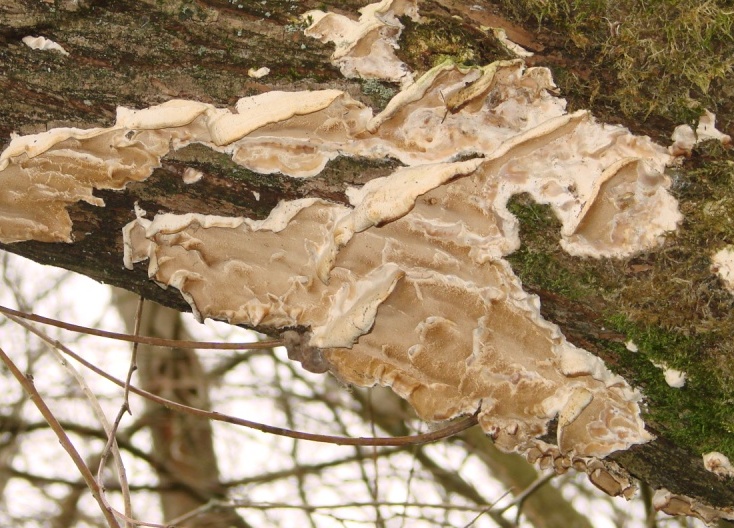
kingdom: Fungi
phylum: Basidiomycota
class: Agaricomycetes
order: Polyporales
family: Phanerochaetaceae
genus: Bjerkandera
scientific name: Bjerkandera fumosa
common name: grågul sodporesvamp
